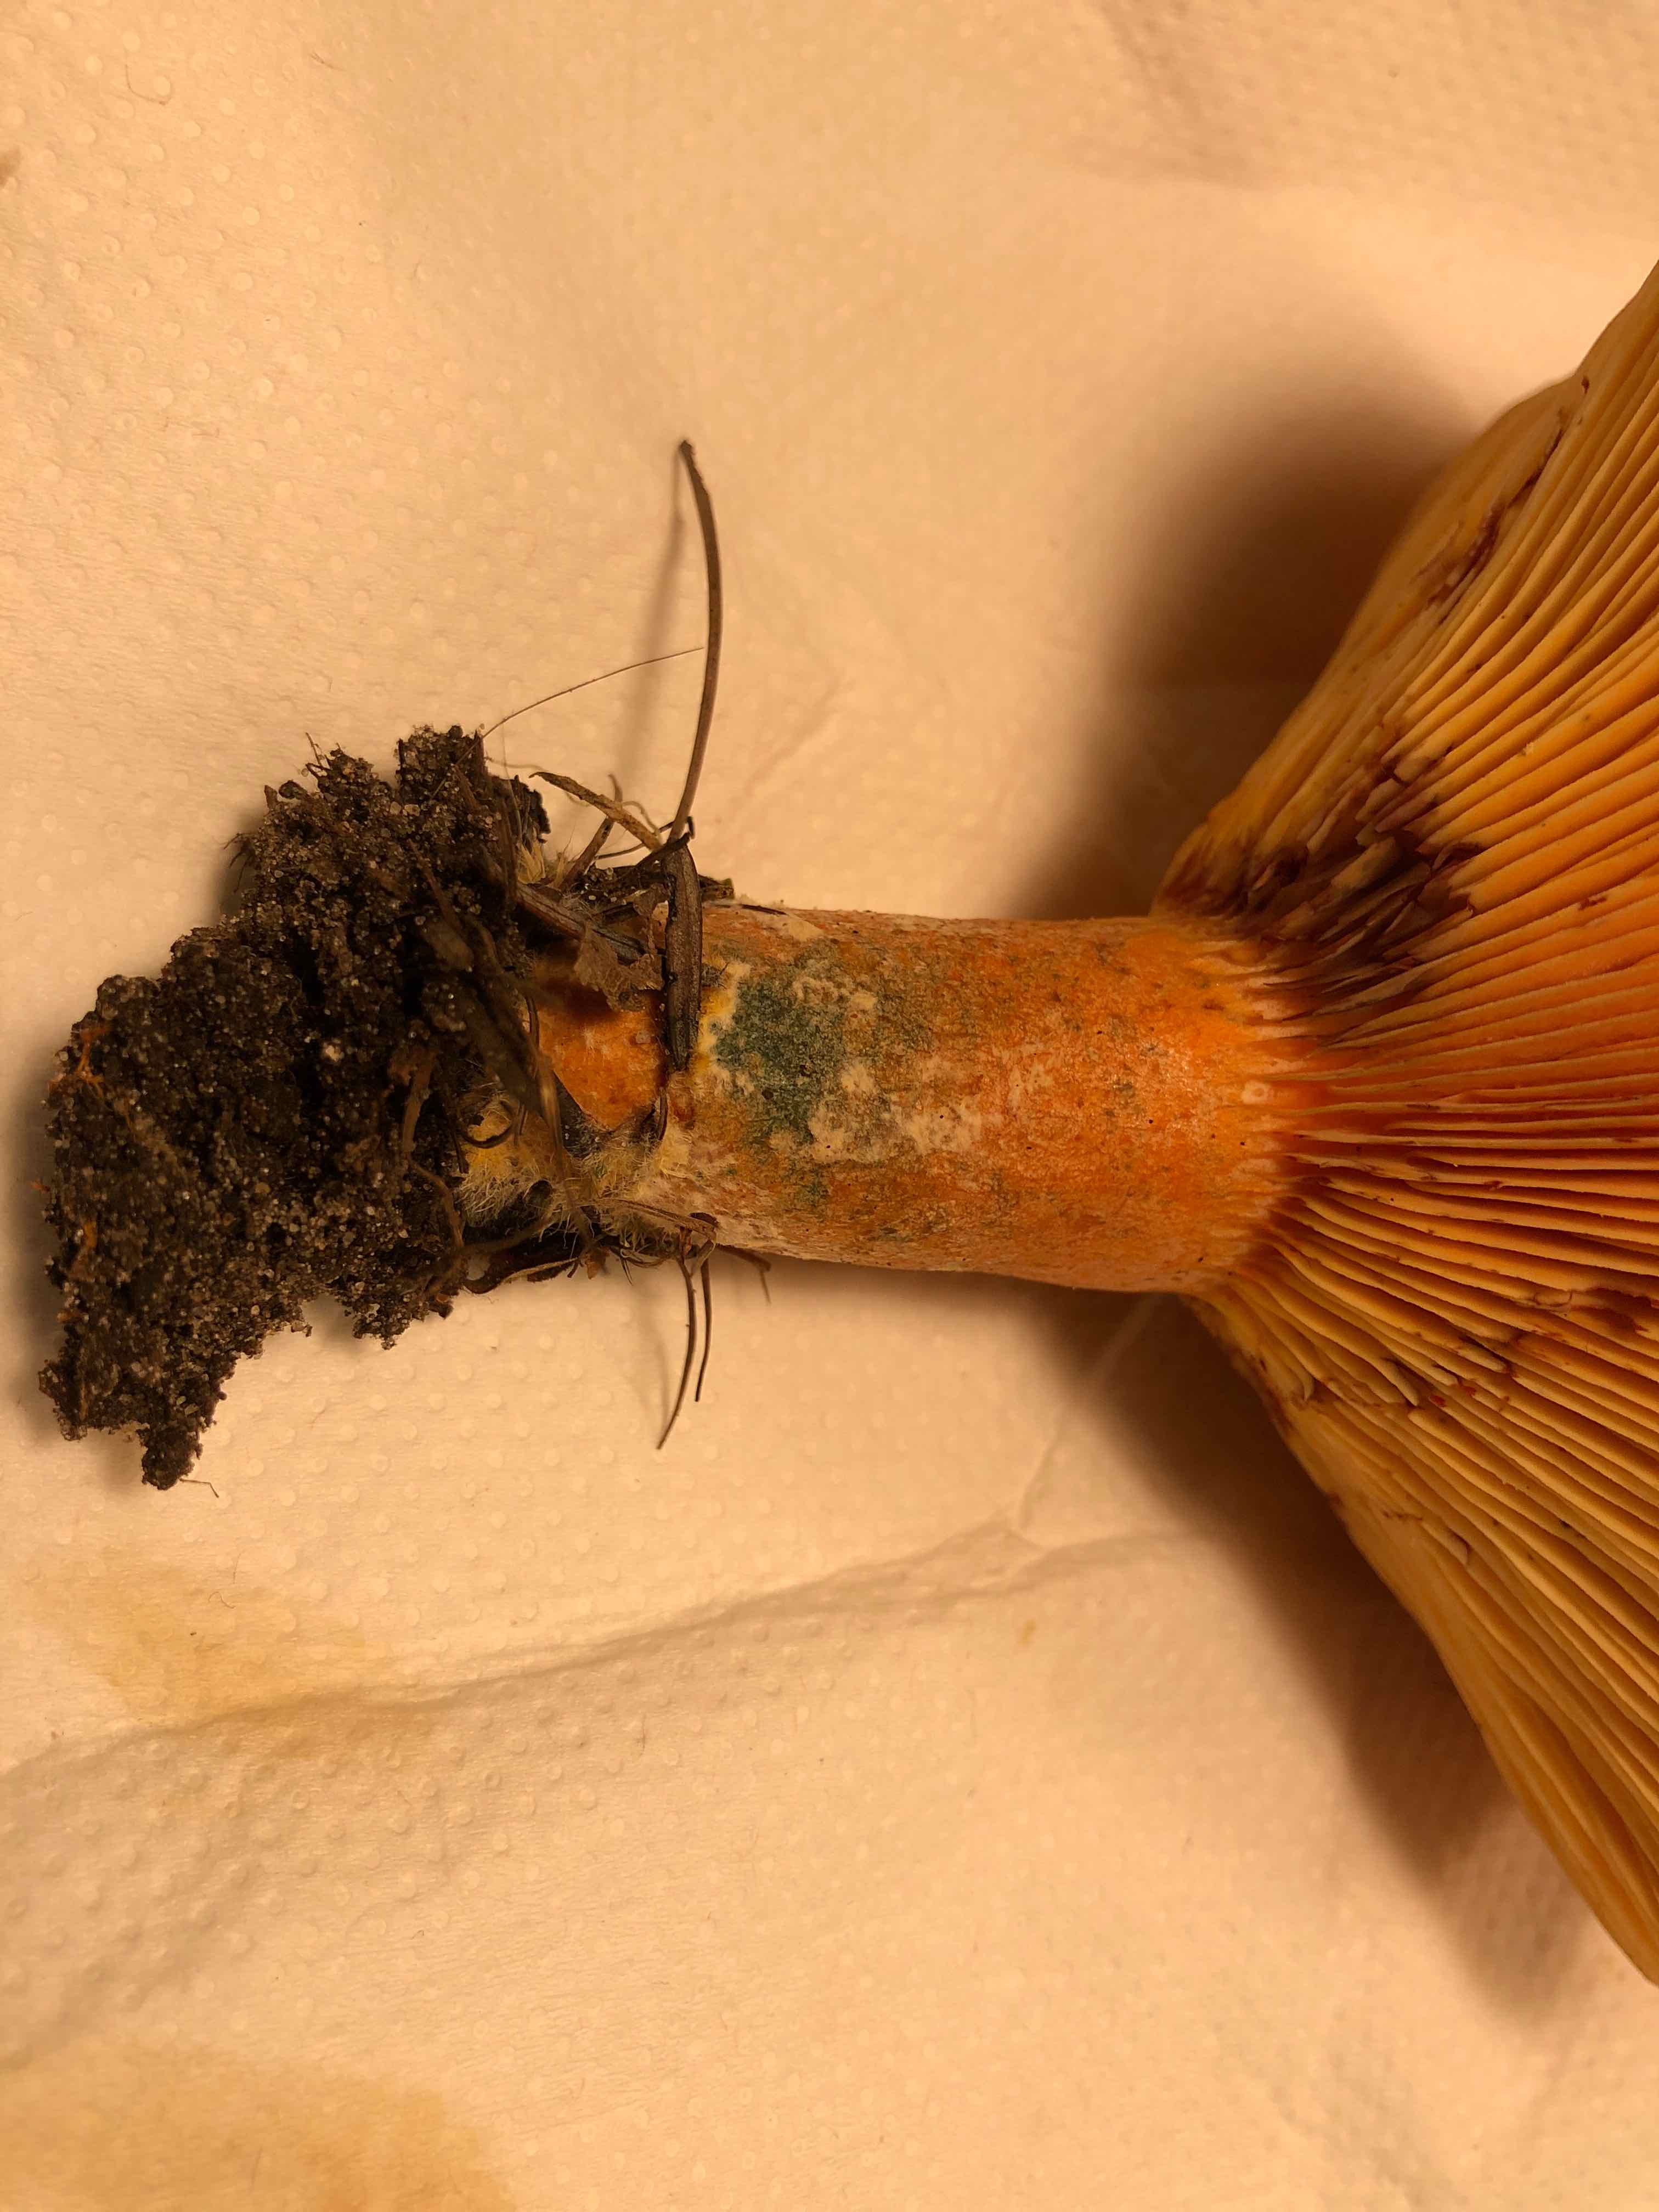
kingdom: Fungi
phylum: Basidiomycota
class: Agaricomycetes
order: Russulales
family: Russulaceae
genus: Lactarius
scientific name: Lactarius deterrimus
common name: gran-mælkehat
